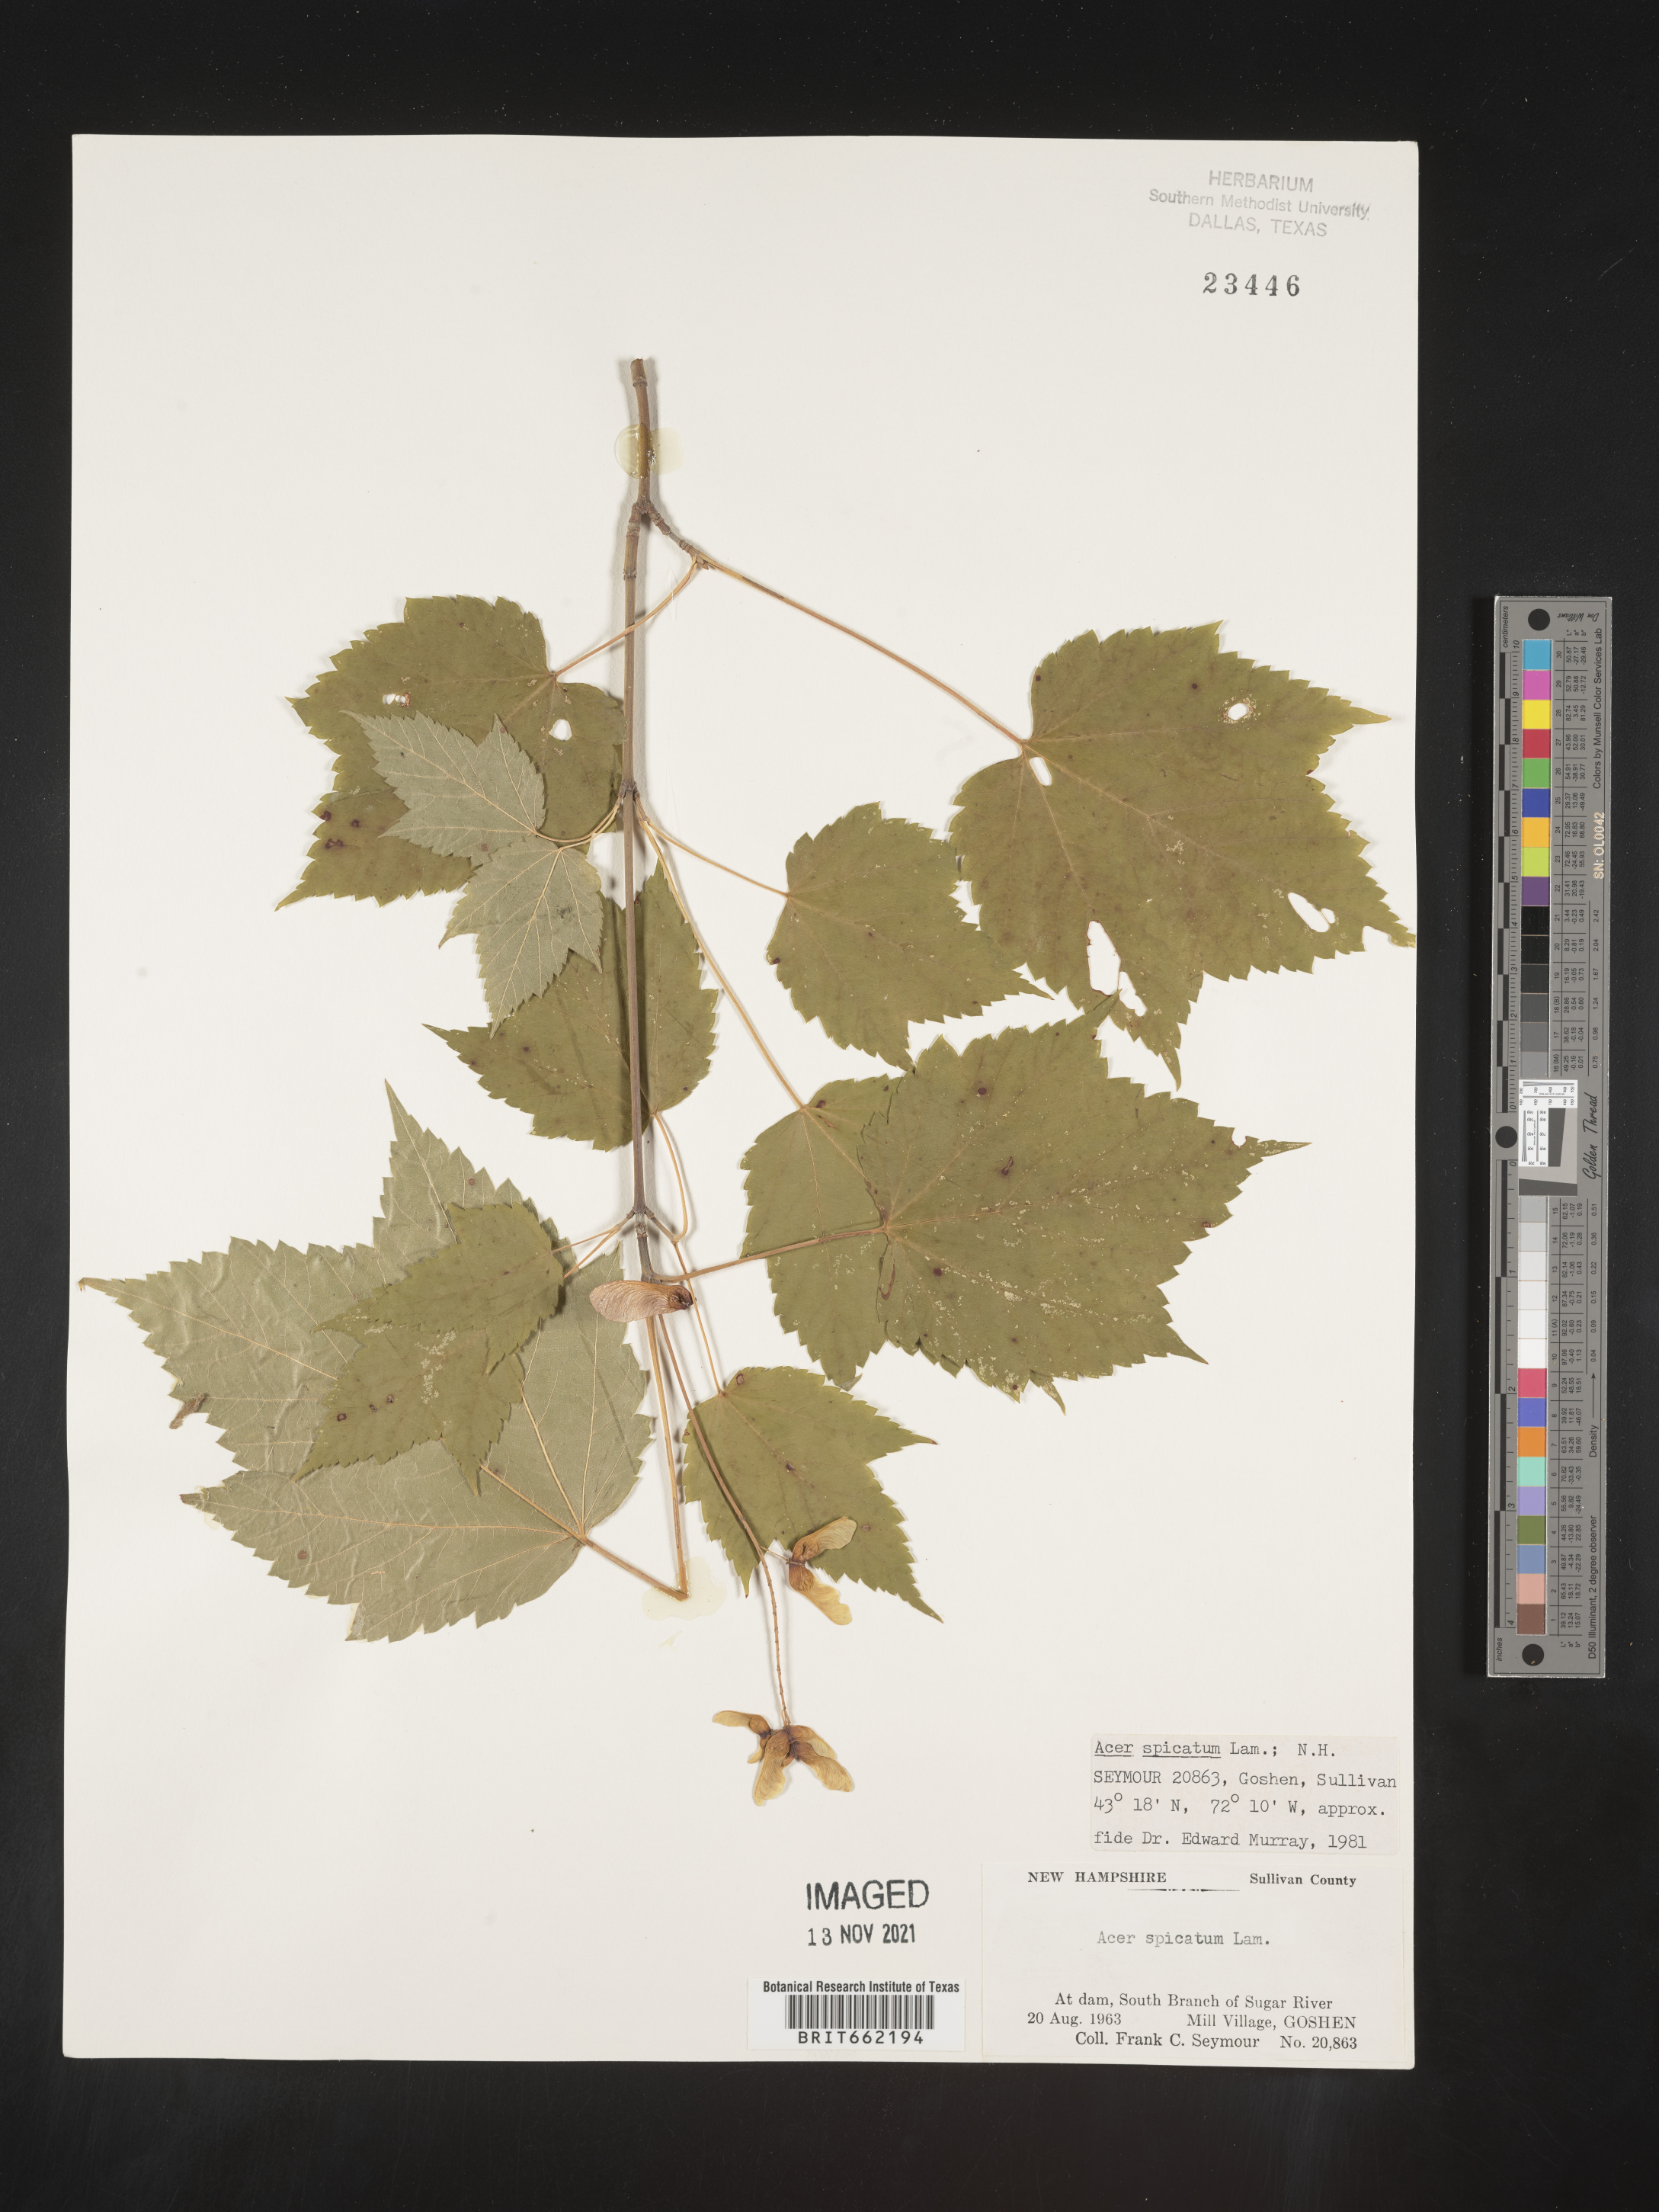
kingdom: Plantae
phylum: Tracheophyta
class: Magnoliopsida
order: Sapindales
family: Sapindaceae
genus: Acer
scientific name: Acer spicatum
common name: Mountain maple
